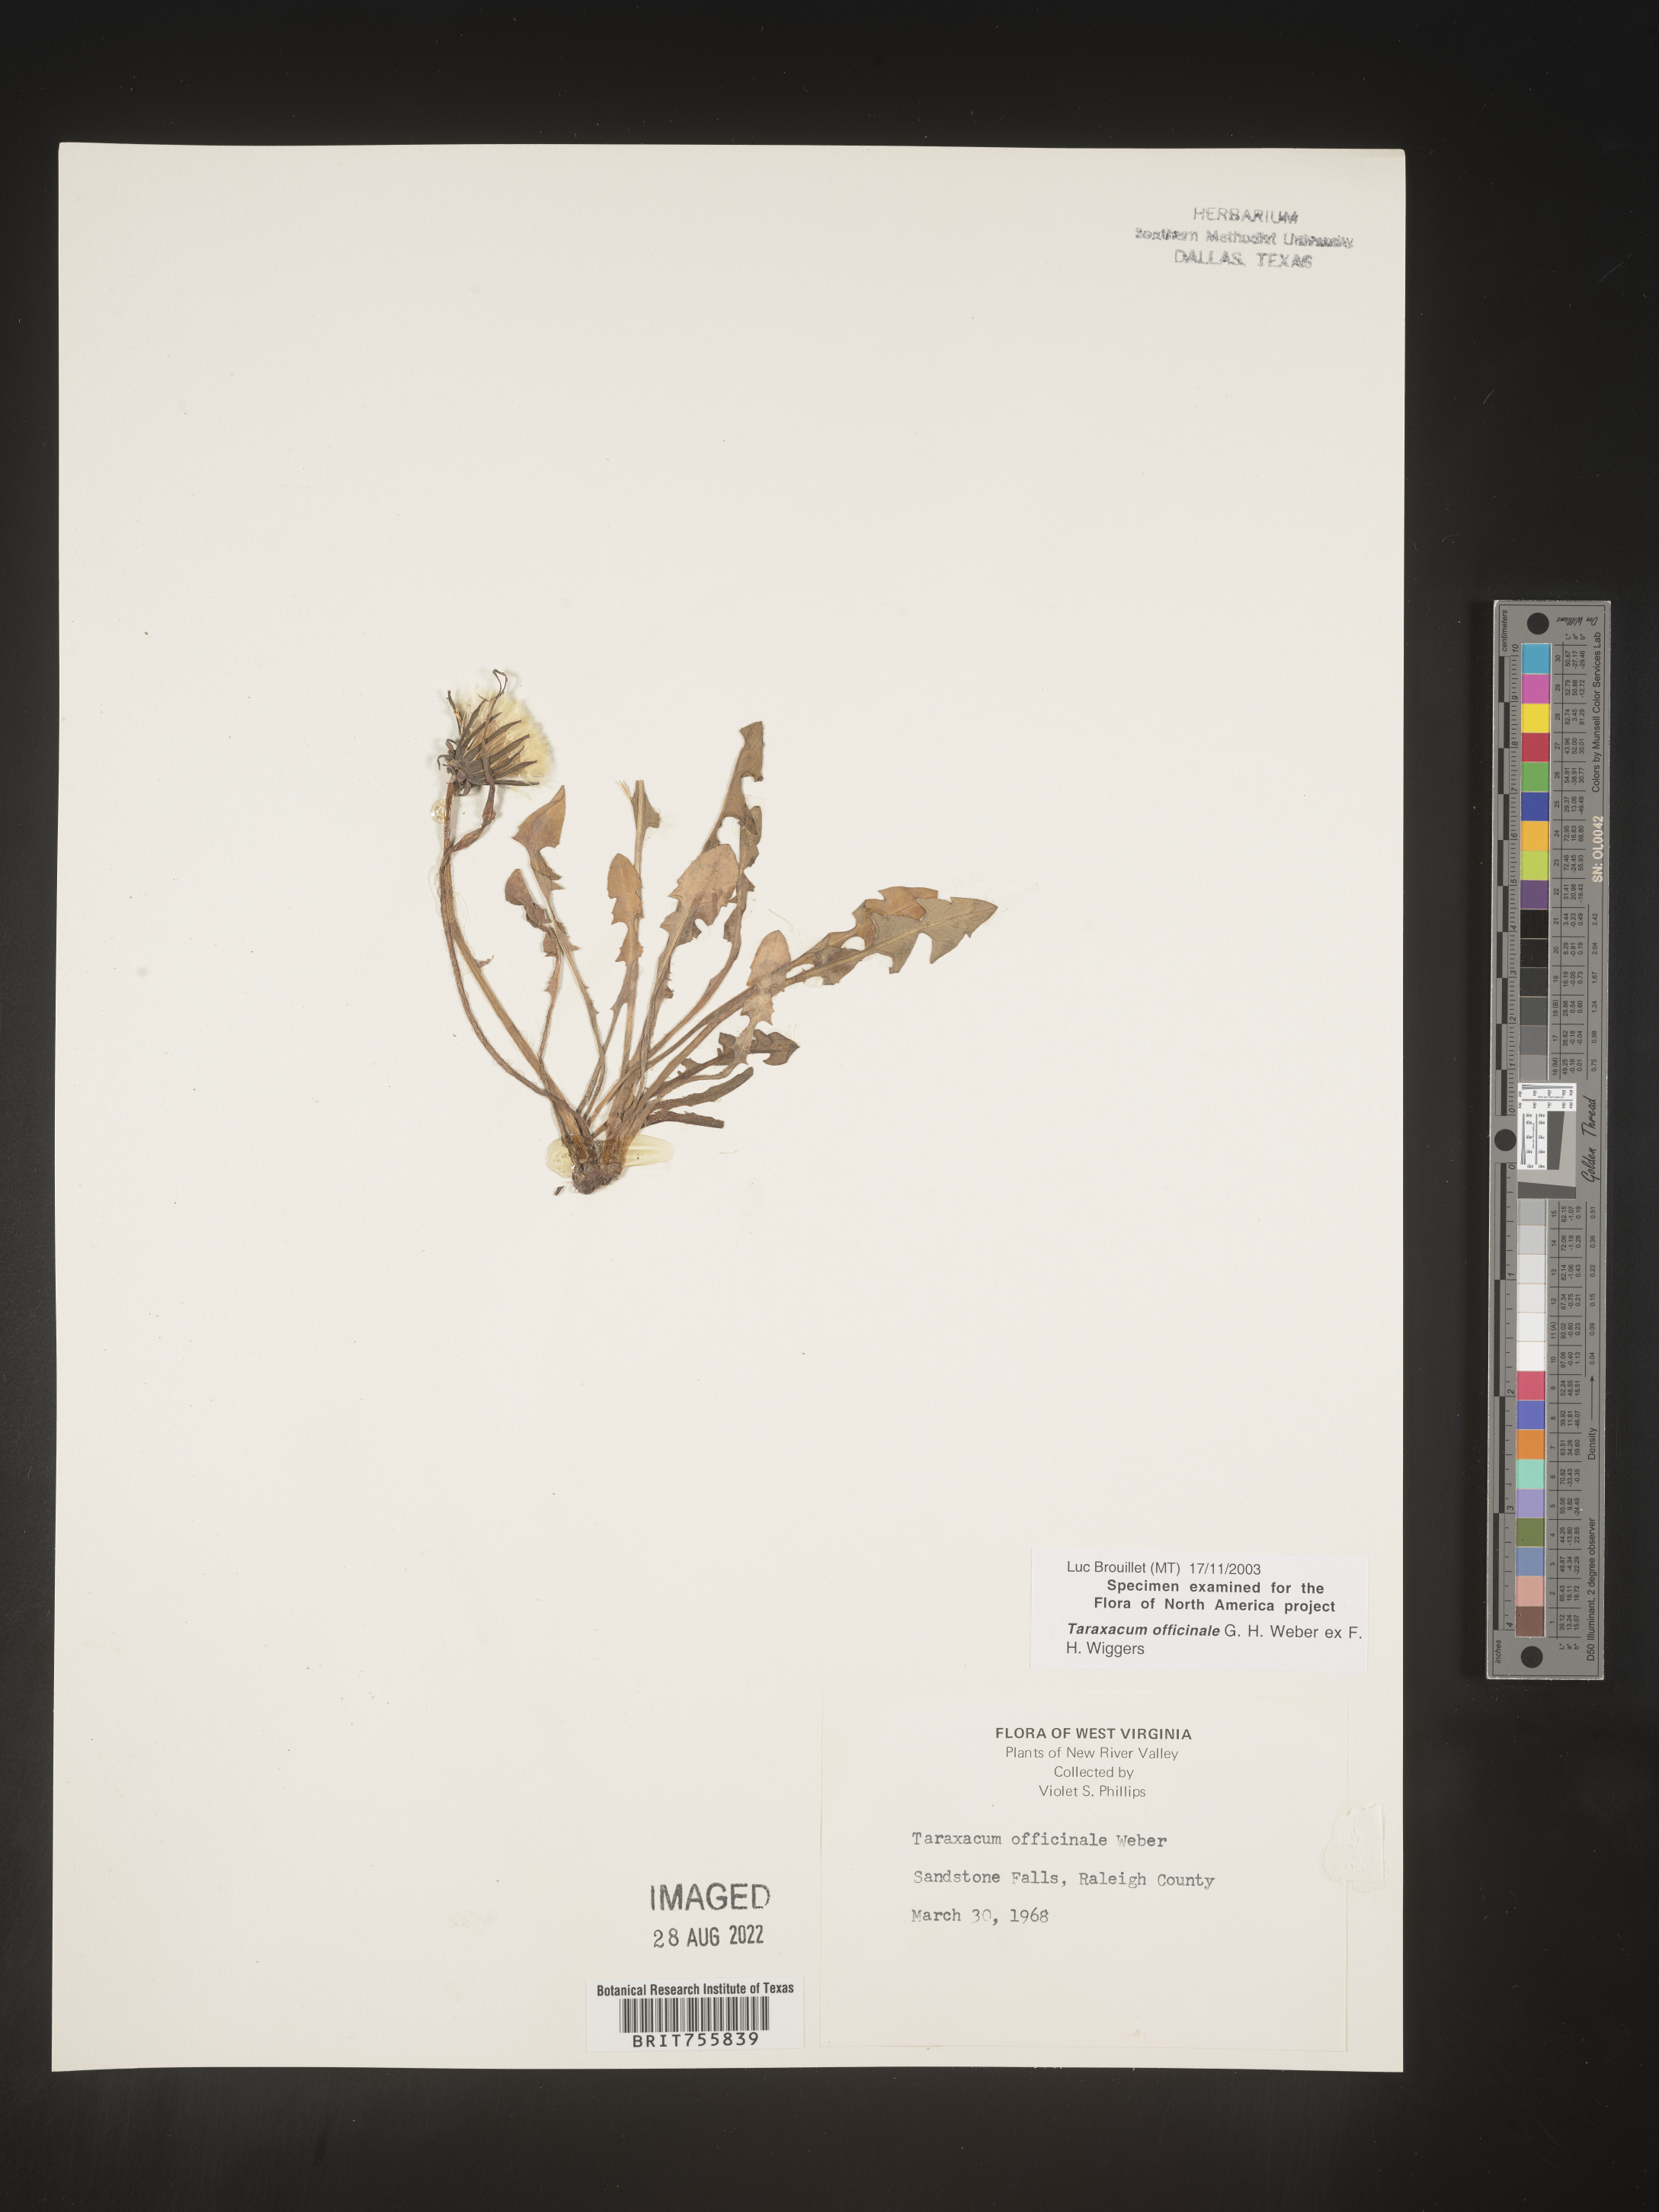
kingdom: Plantae
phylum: Tracheophyta
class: Magnoliopsida
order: Asterales
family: Asteraceae
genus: Taraxacum
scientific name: Taraxacum officinale
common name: Common dandelion
